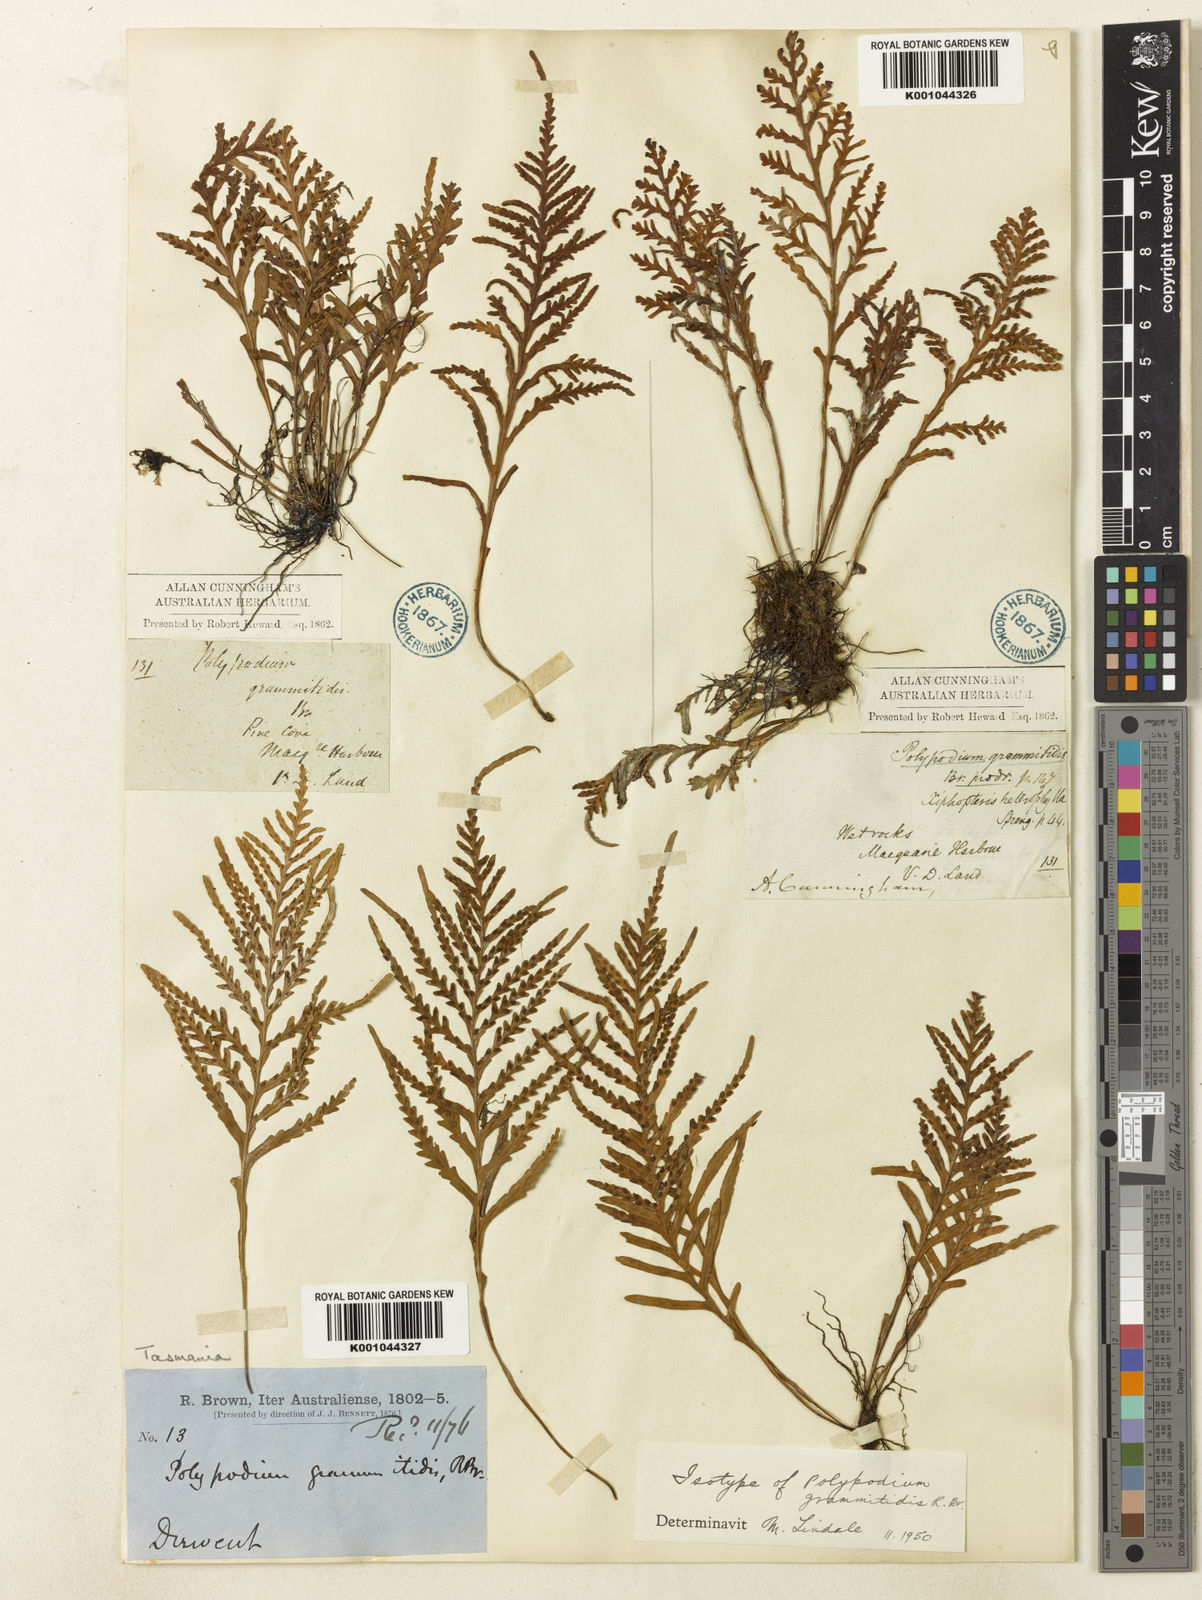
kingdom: Plantae
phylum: Tracheophyta
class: Polypodiopsida
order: Polypodiales
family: Polypodiaceae
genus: Notogrammitis
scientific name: Notogrammitis heterophylla
